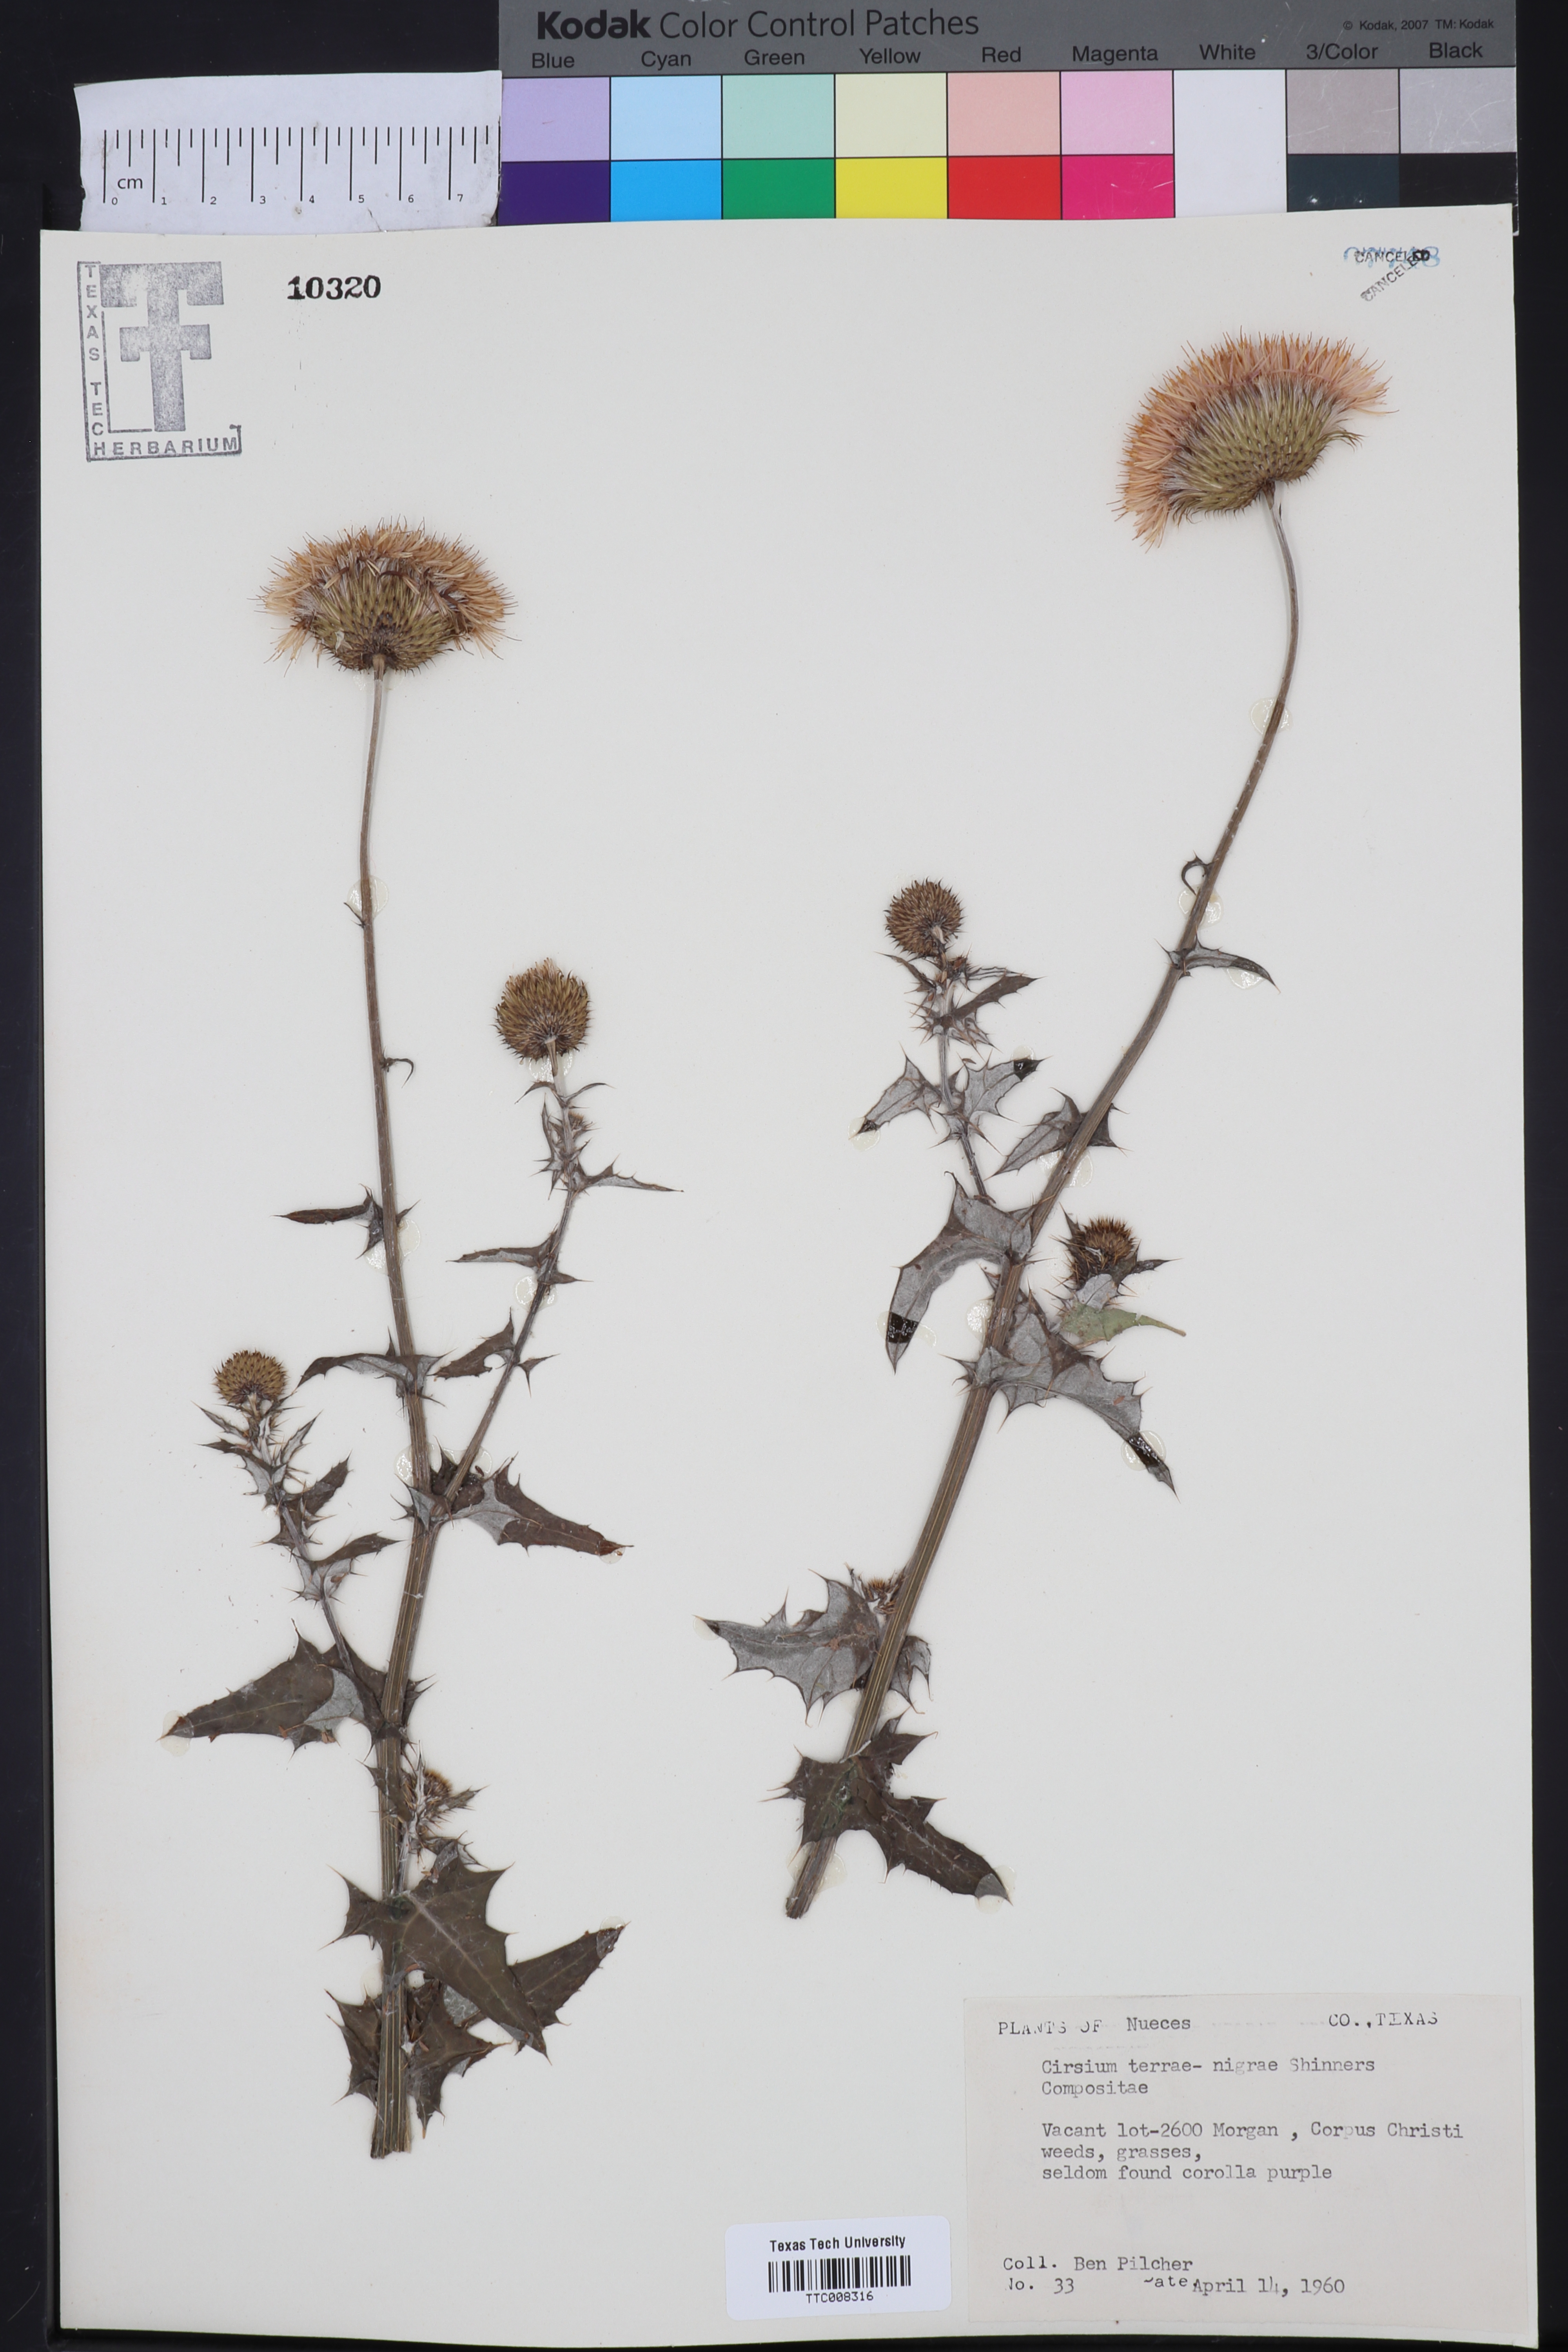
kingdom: Plantae
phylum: Tracheophyta
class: Magnoliopsida
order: Asterales
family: Asteraceae
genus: Cirsium
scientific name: Cirsium engelmannii
